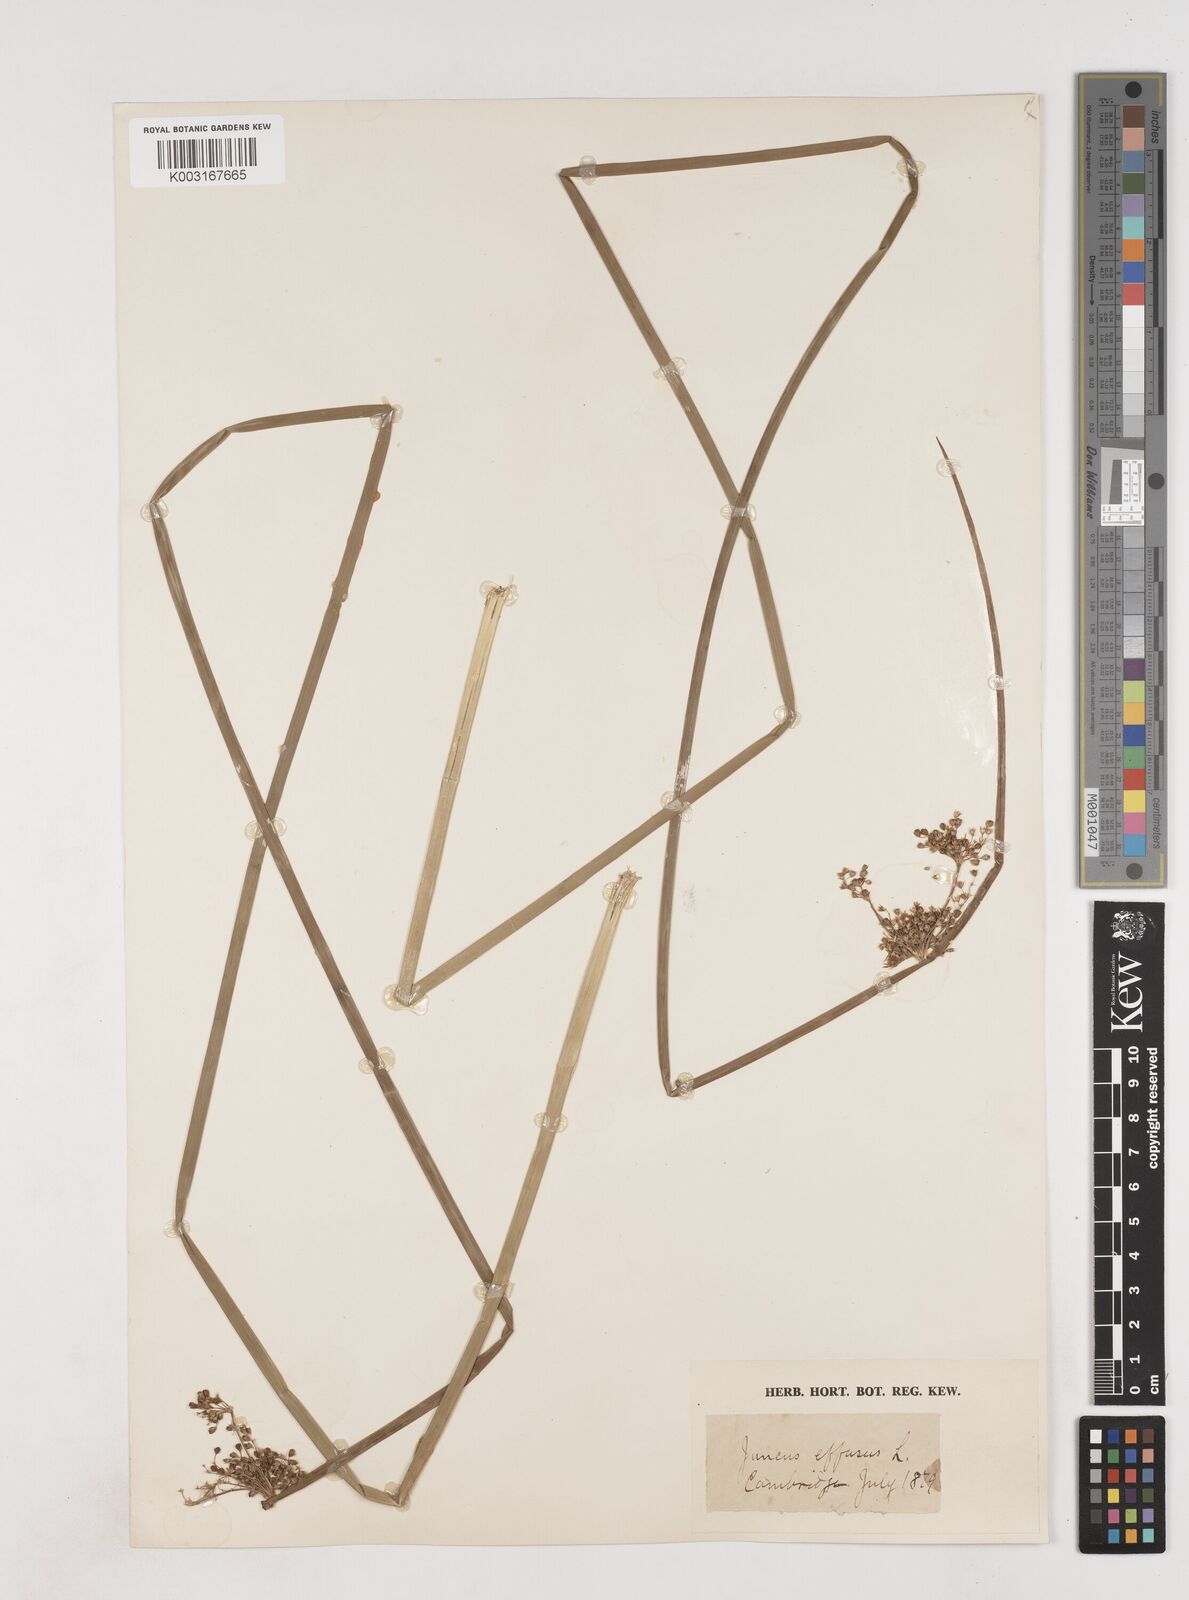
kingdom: Plantae
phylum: Tracheophyta
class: Liliopsida
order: Poales
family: Juncaceae
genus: Juncus
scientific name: Juncus effusus
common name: Soft rush
